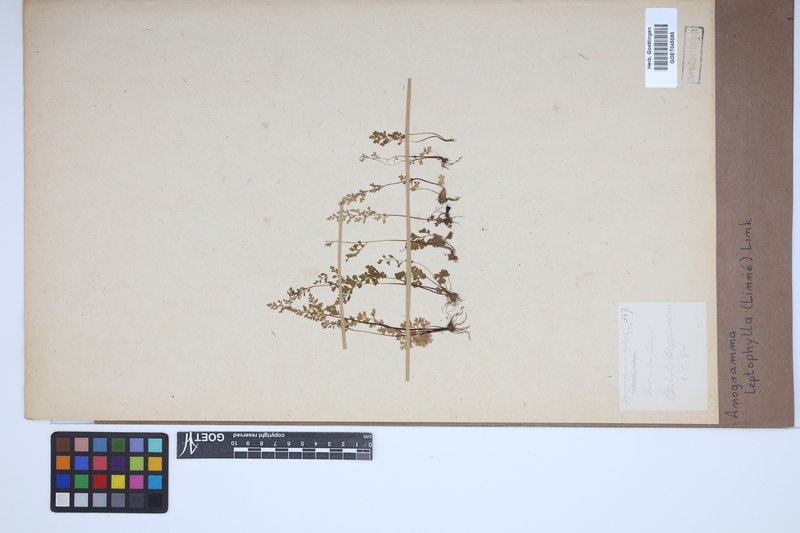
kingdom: Plantae
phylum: Tracheophyta
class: Polypodiopsida
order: Polypodiales
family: Pteridaceae
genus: Anogramma
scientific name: Anogramma leptophylla
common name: Jersey fern
